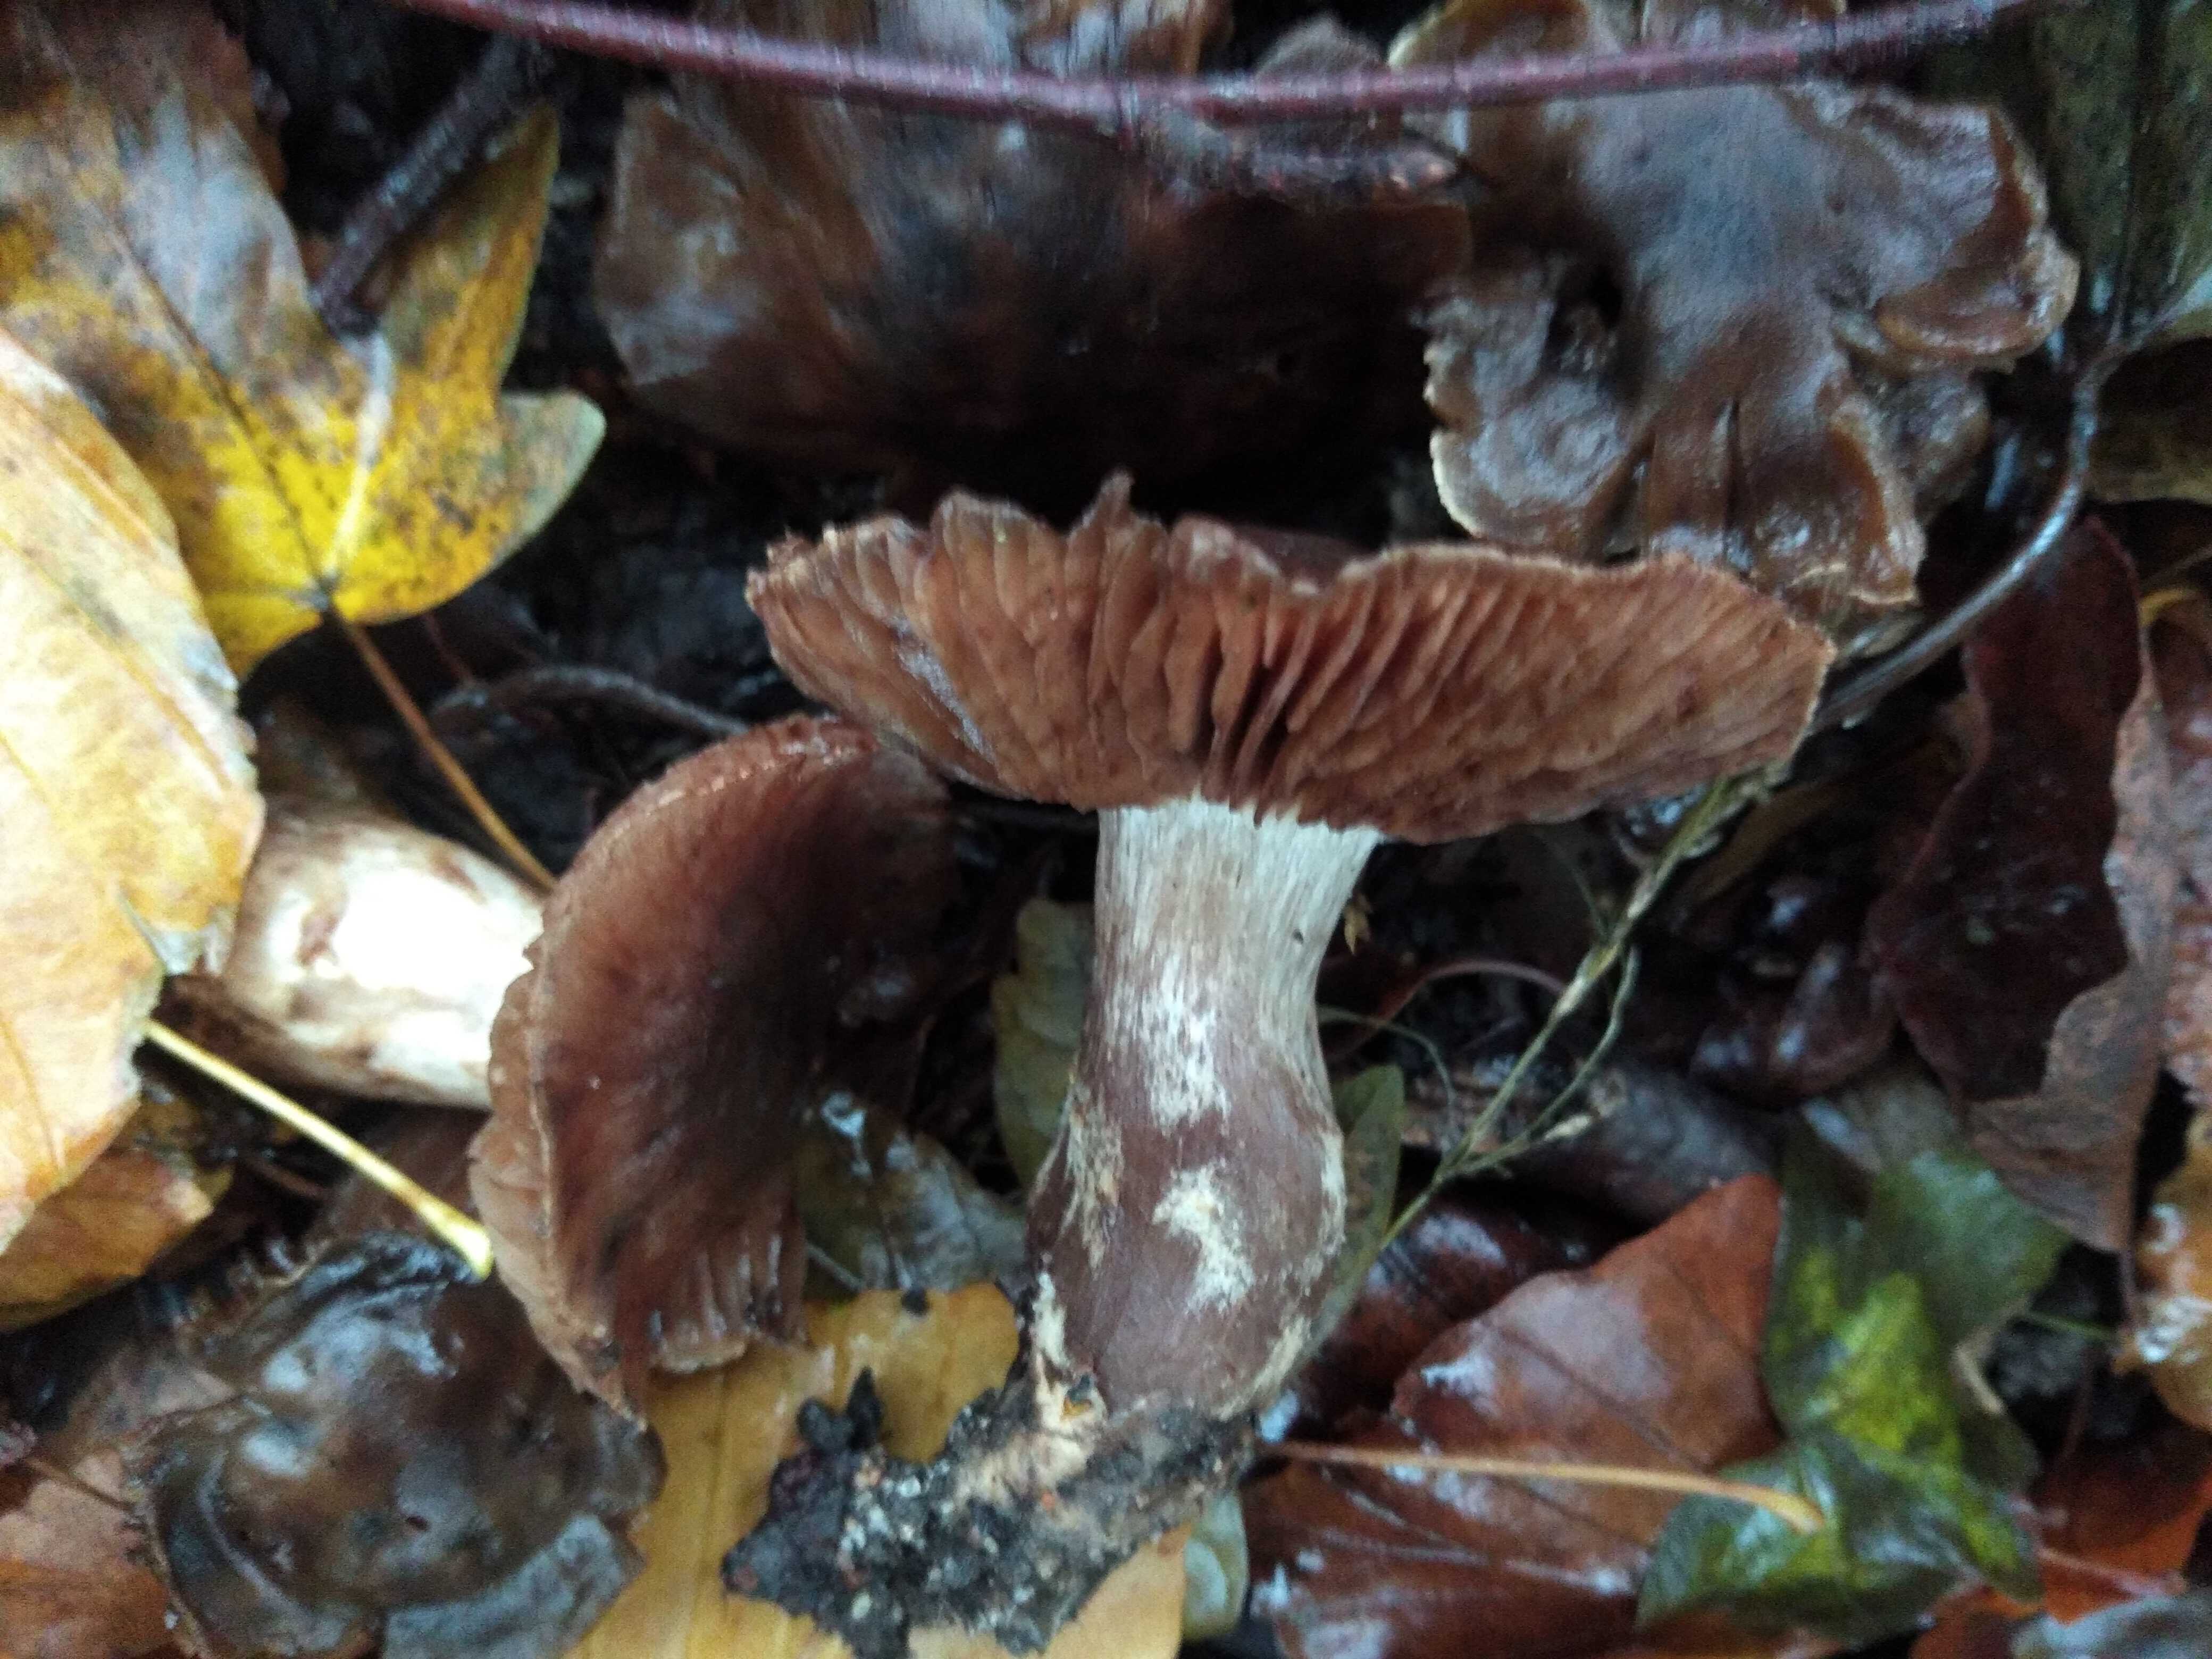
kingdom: Fungi
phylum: Basidiomycota
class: Agaricomycetes
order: Agaricales
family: Cortinariaceae
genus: Cortinarius
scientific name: Cortinarius
